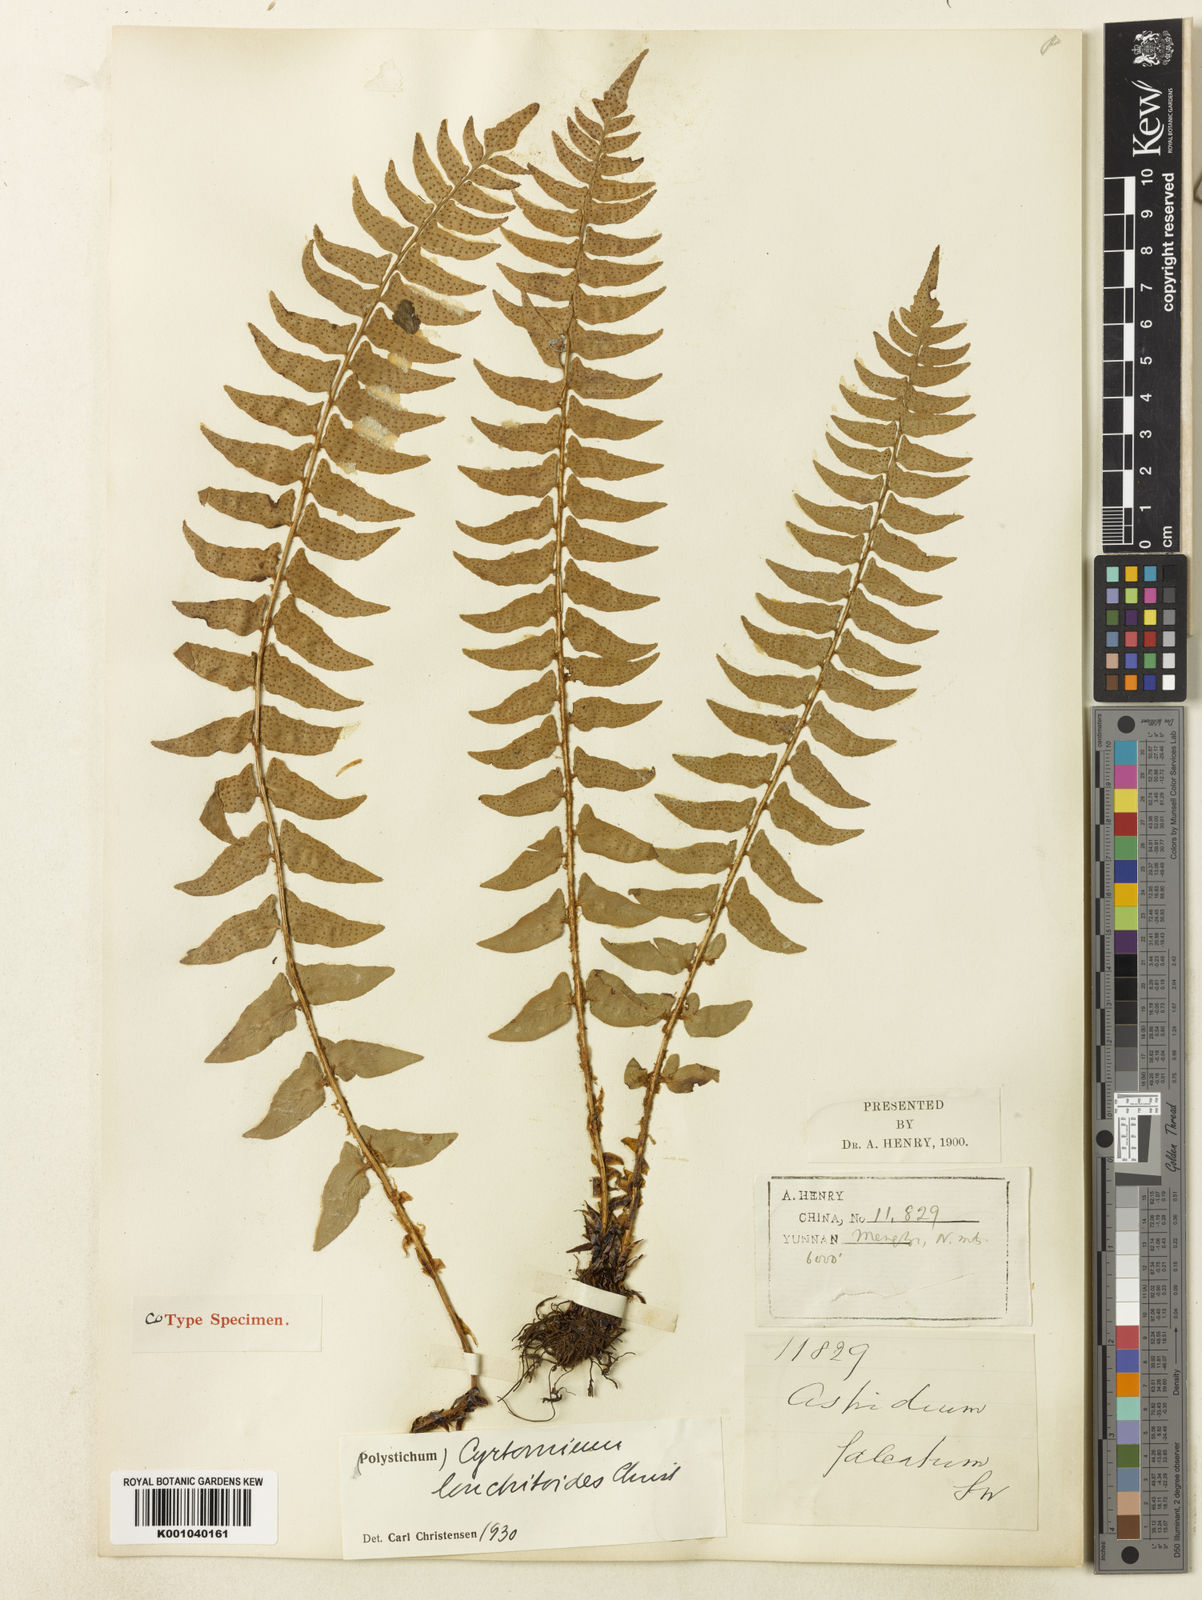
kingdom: Plantae
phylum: Tracheophyta
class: Polypodiopsida
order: Polypodiales
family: Dryopteridaceae
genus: Cyrtomium
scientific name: Cyrtomium lonchitoides
